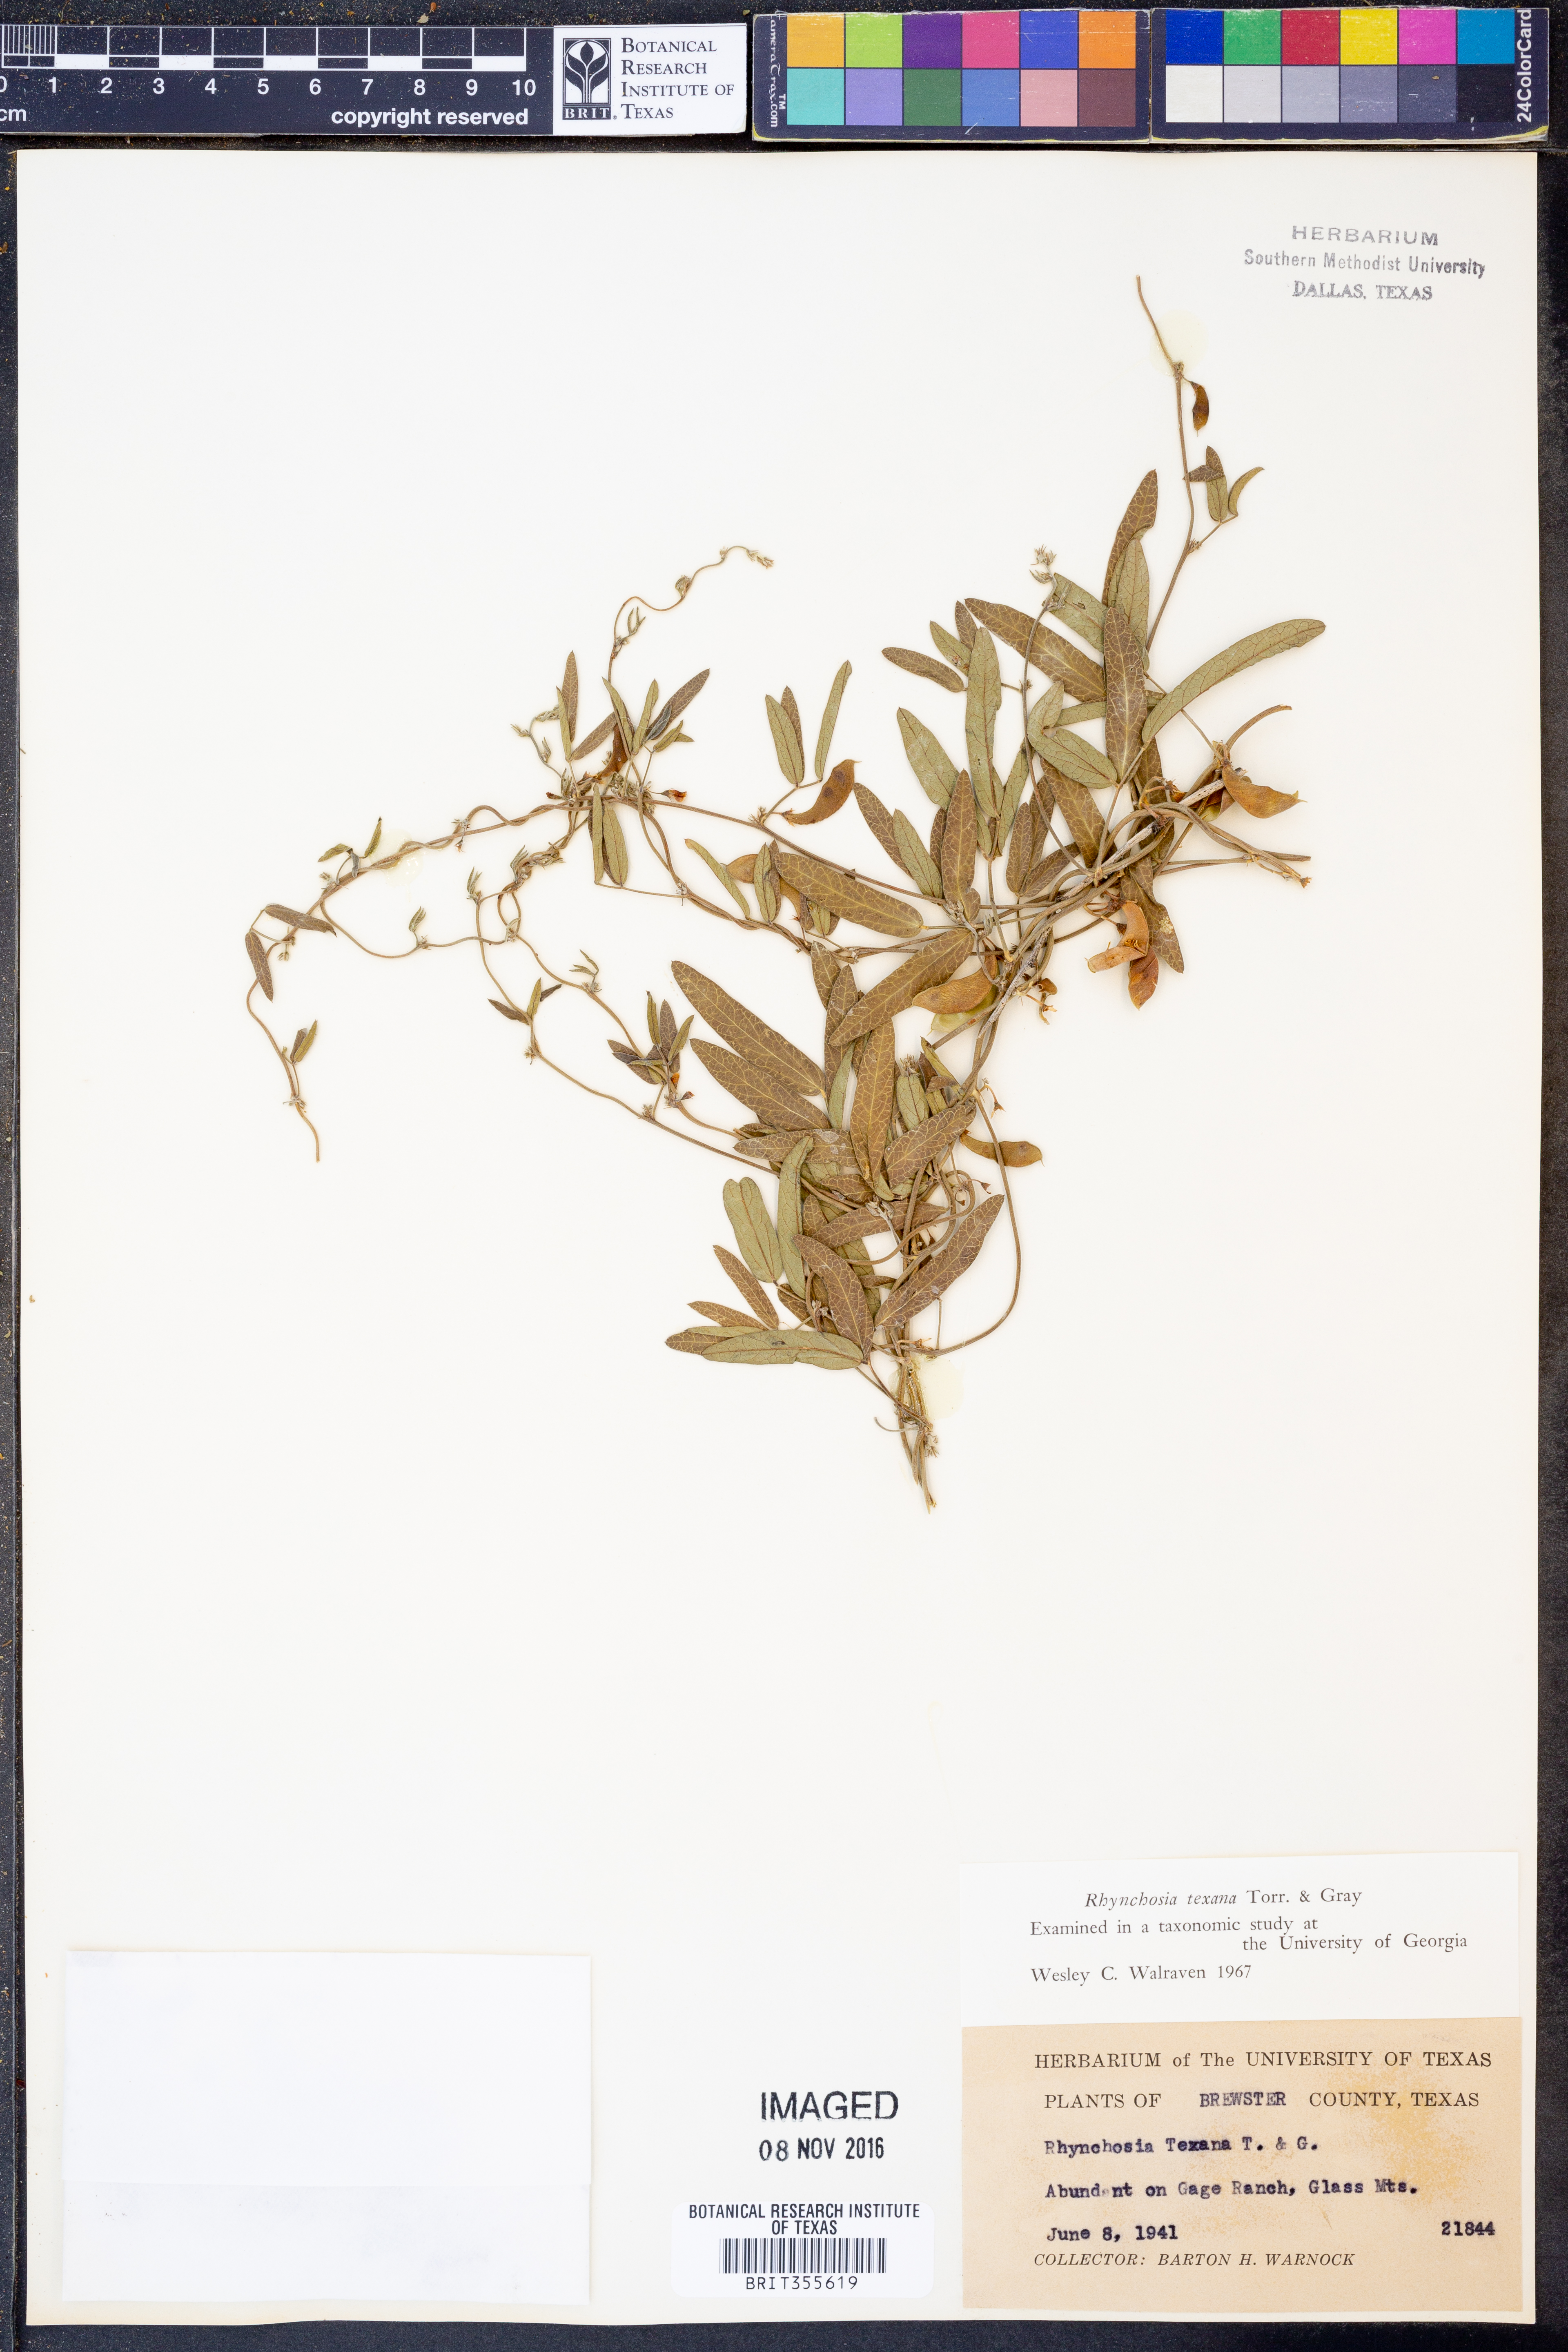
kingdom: Plantae
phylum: Tracheophyta
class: Magnoliopsida
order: Fabales
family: Fabaceae
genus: Rhynchosia
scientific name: Rhynchosia senna
